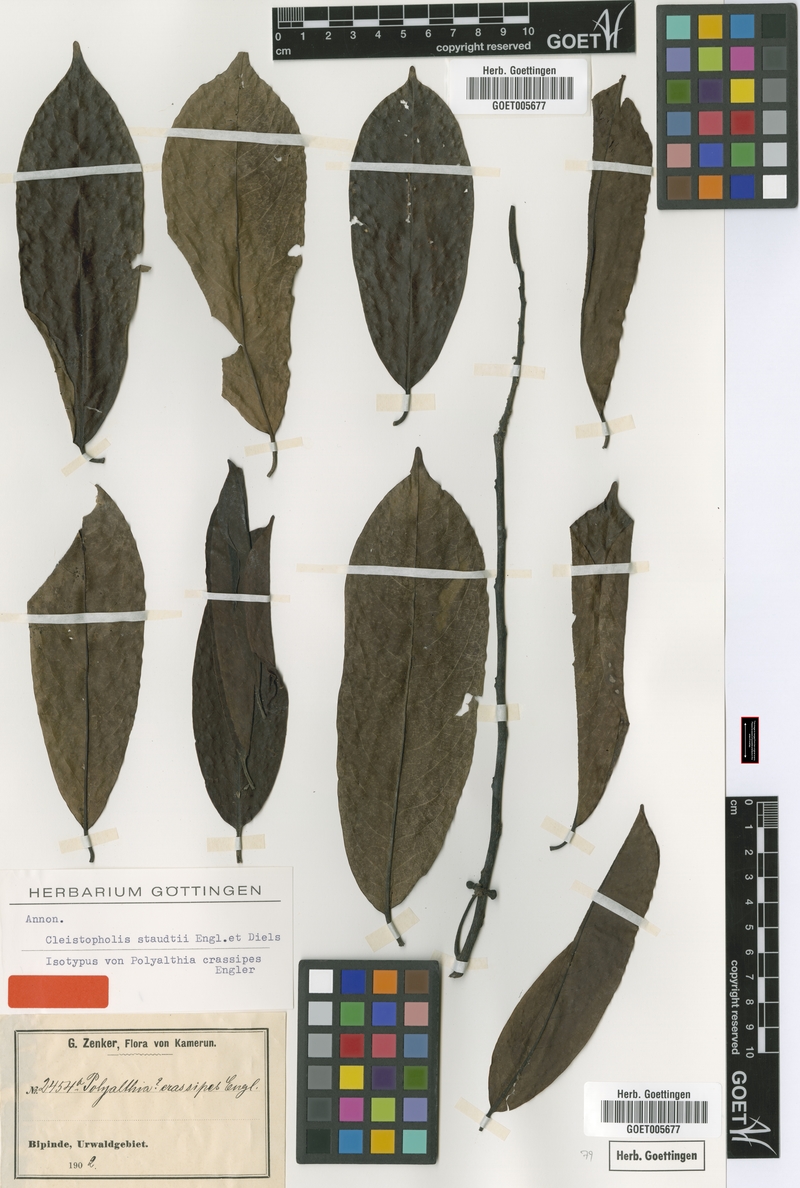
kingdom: Plantae
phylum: Tracheophyta
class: Magnoliopsida
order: Magnoliales
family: Annonaceae
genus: Cleistopholis
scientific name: Cleistopholis staudtii
